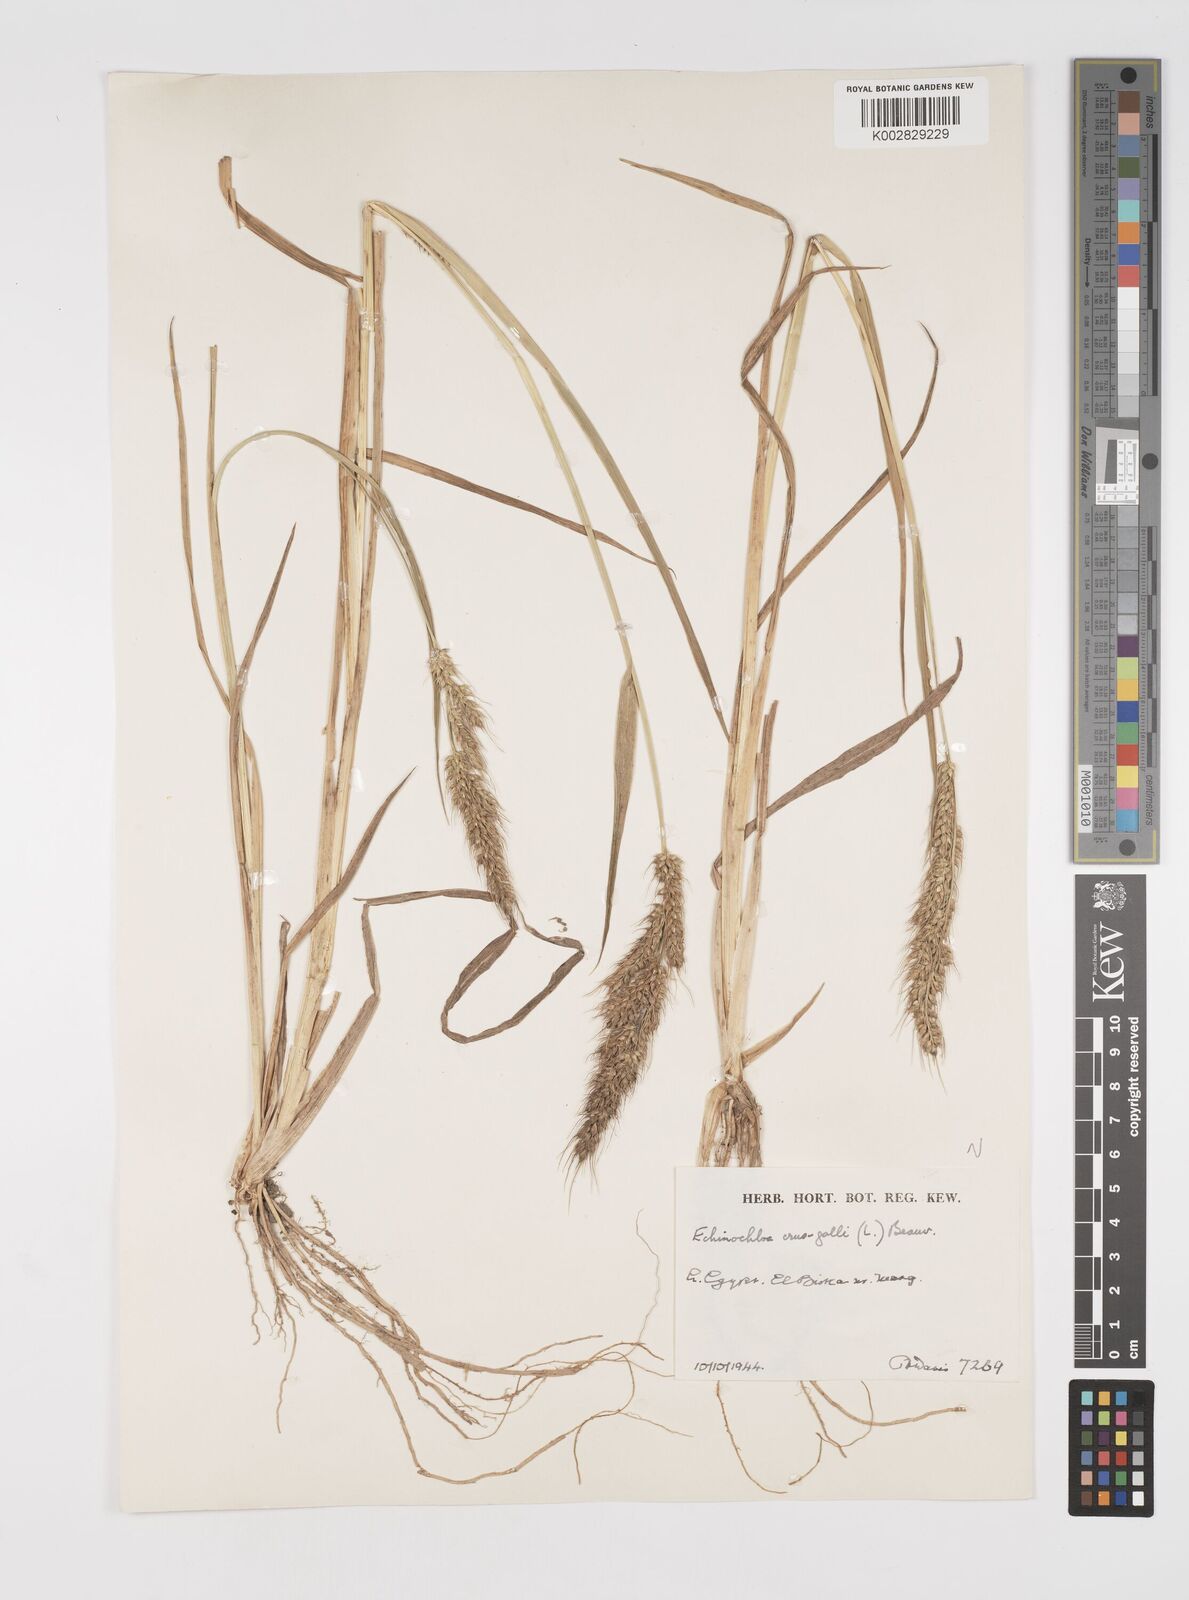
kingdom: Plantae
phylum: Tracheophyta
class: Liliopsida
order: Poales
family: Poaceae
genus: Echinochloa
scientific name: Echinochloa crus-galli
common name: Cockspur
